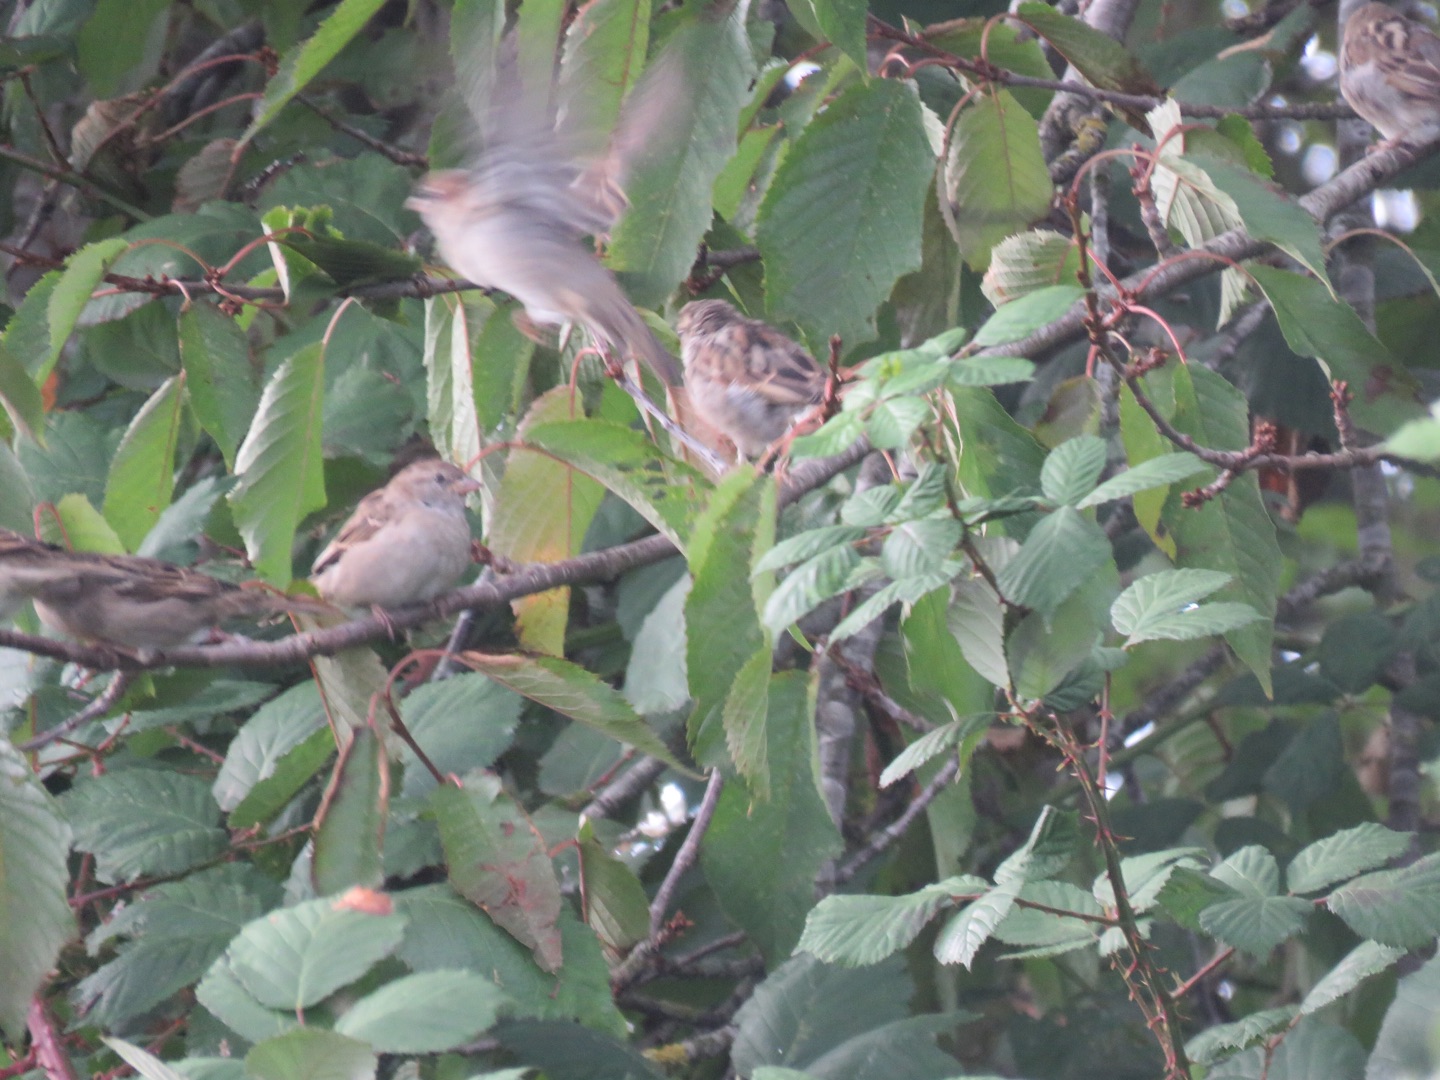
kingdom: Animalia
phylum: Chordata
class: Aves
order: Passeriformes
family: Passeridae
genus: Passer
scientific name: Passer domesticus
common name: Gråspurv
